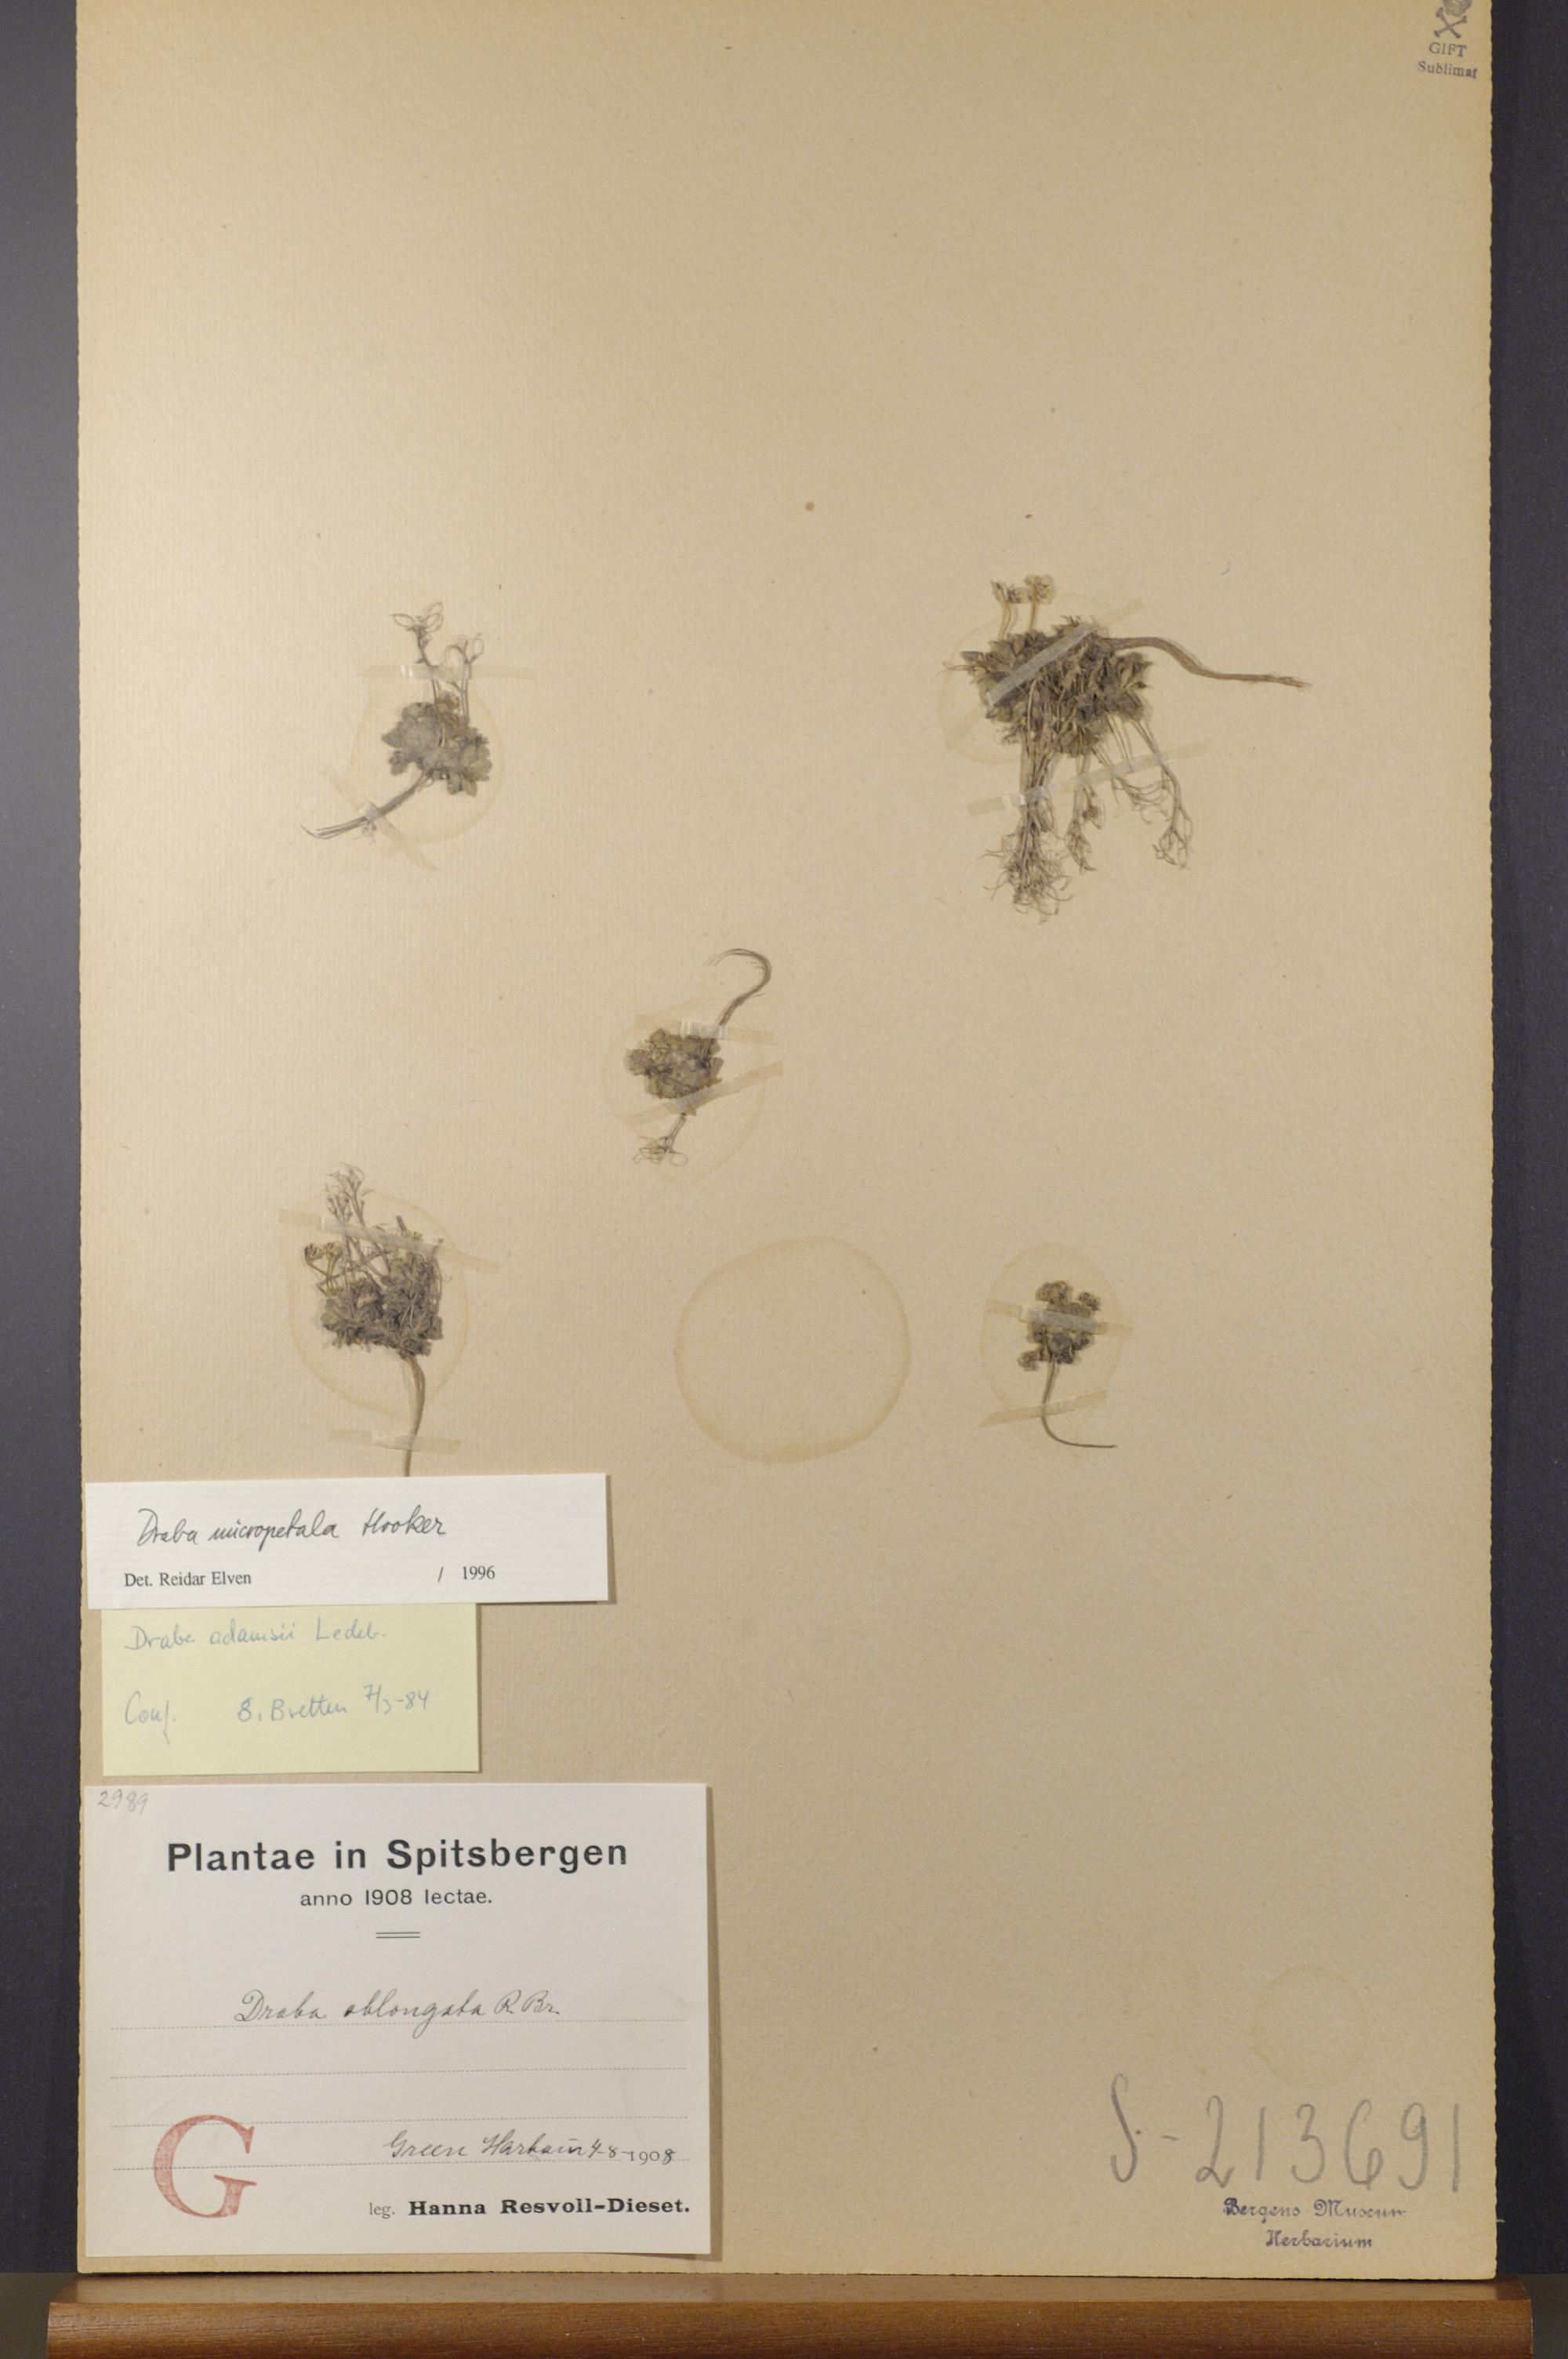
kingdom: Plantae
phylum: Tracheophyta
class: Magnoliopsida
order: Brassicales
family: Brassicaceae
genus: Draba
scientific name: Draba micropetala
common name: Small-flowered draba
